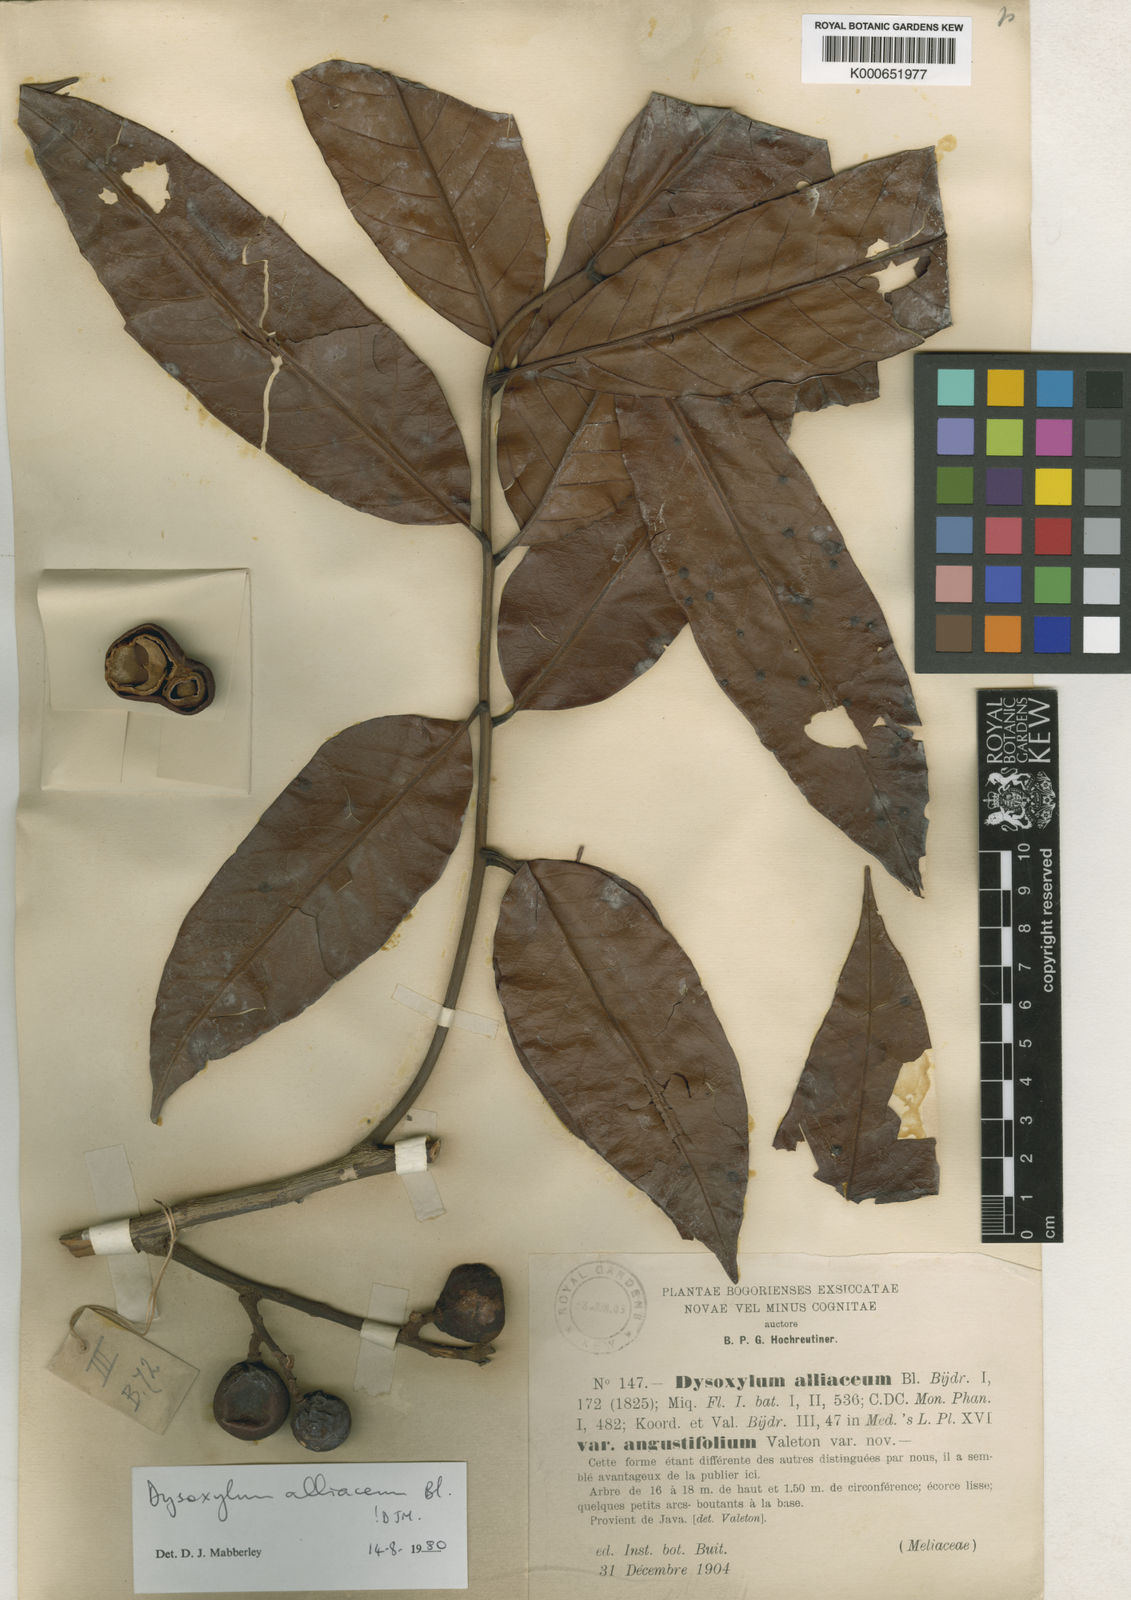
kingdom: Plantae
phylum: Tracheophyta
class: Magnoliopsida
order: Sapindales
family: Meliaceae
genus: Prasoxylon
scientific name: Prasoxylon alliaceum
